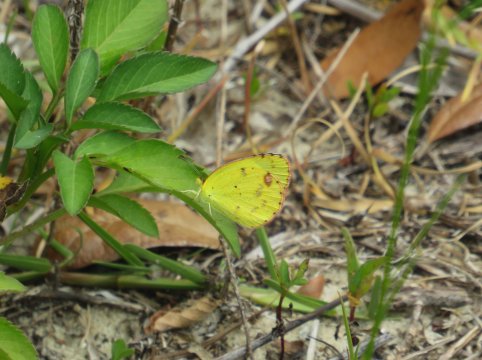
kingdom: Animalia
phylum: Arthropoda
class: Insecta
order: Lepidoptera
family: Pieridae
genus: Pyrisitia
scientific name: Pyrisitia lisa
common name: Little Yellow
